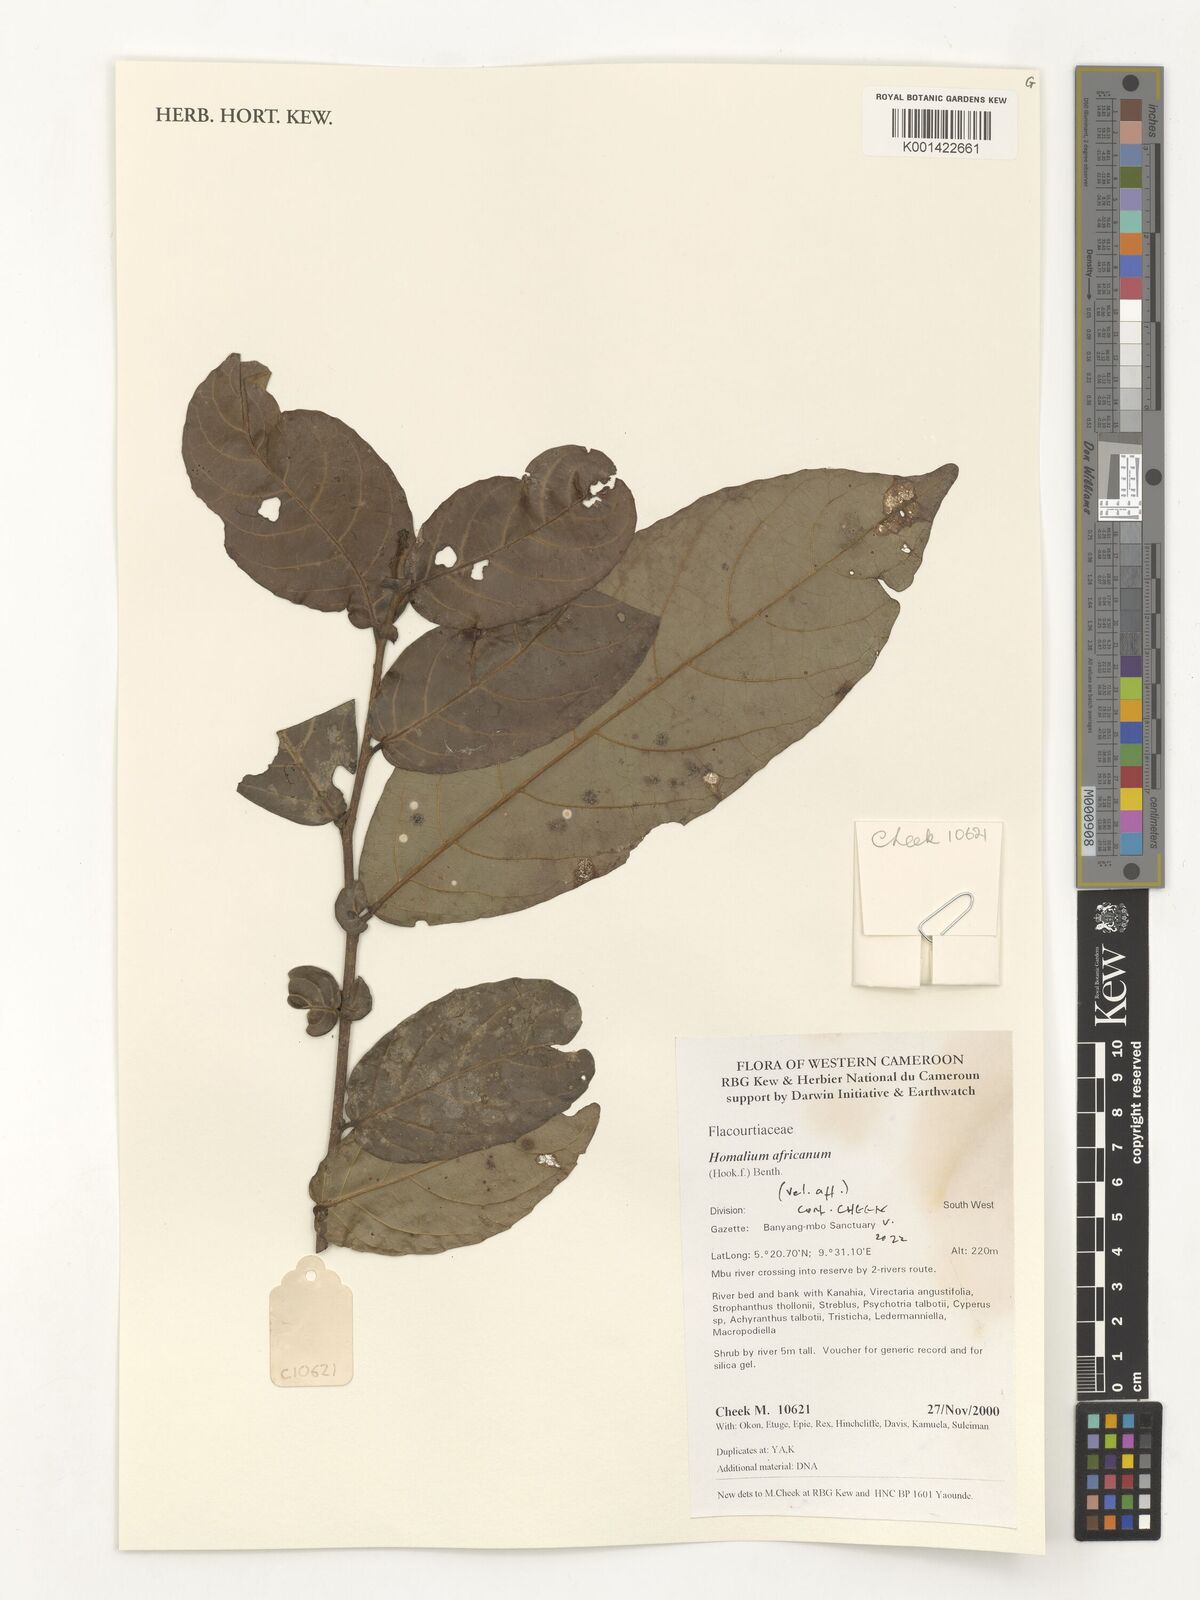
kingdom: Plantae
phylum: Tracheophyta
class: Magnoliopsida
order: Malpighiales
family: Salicaceae
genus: Homalium
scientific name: Homalium africanum
